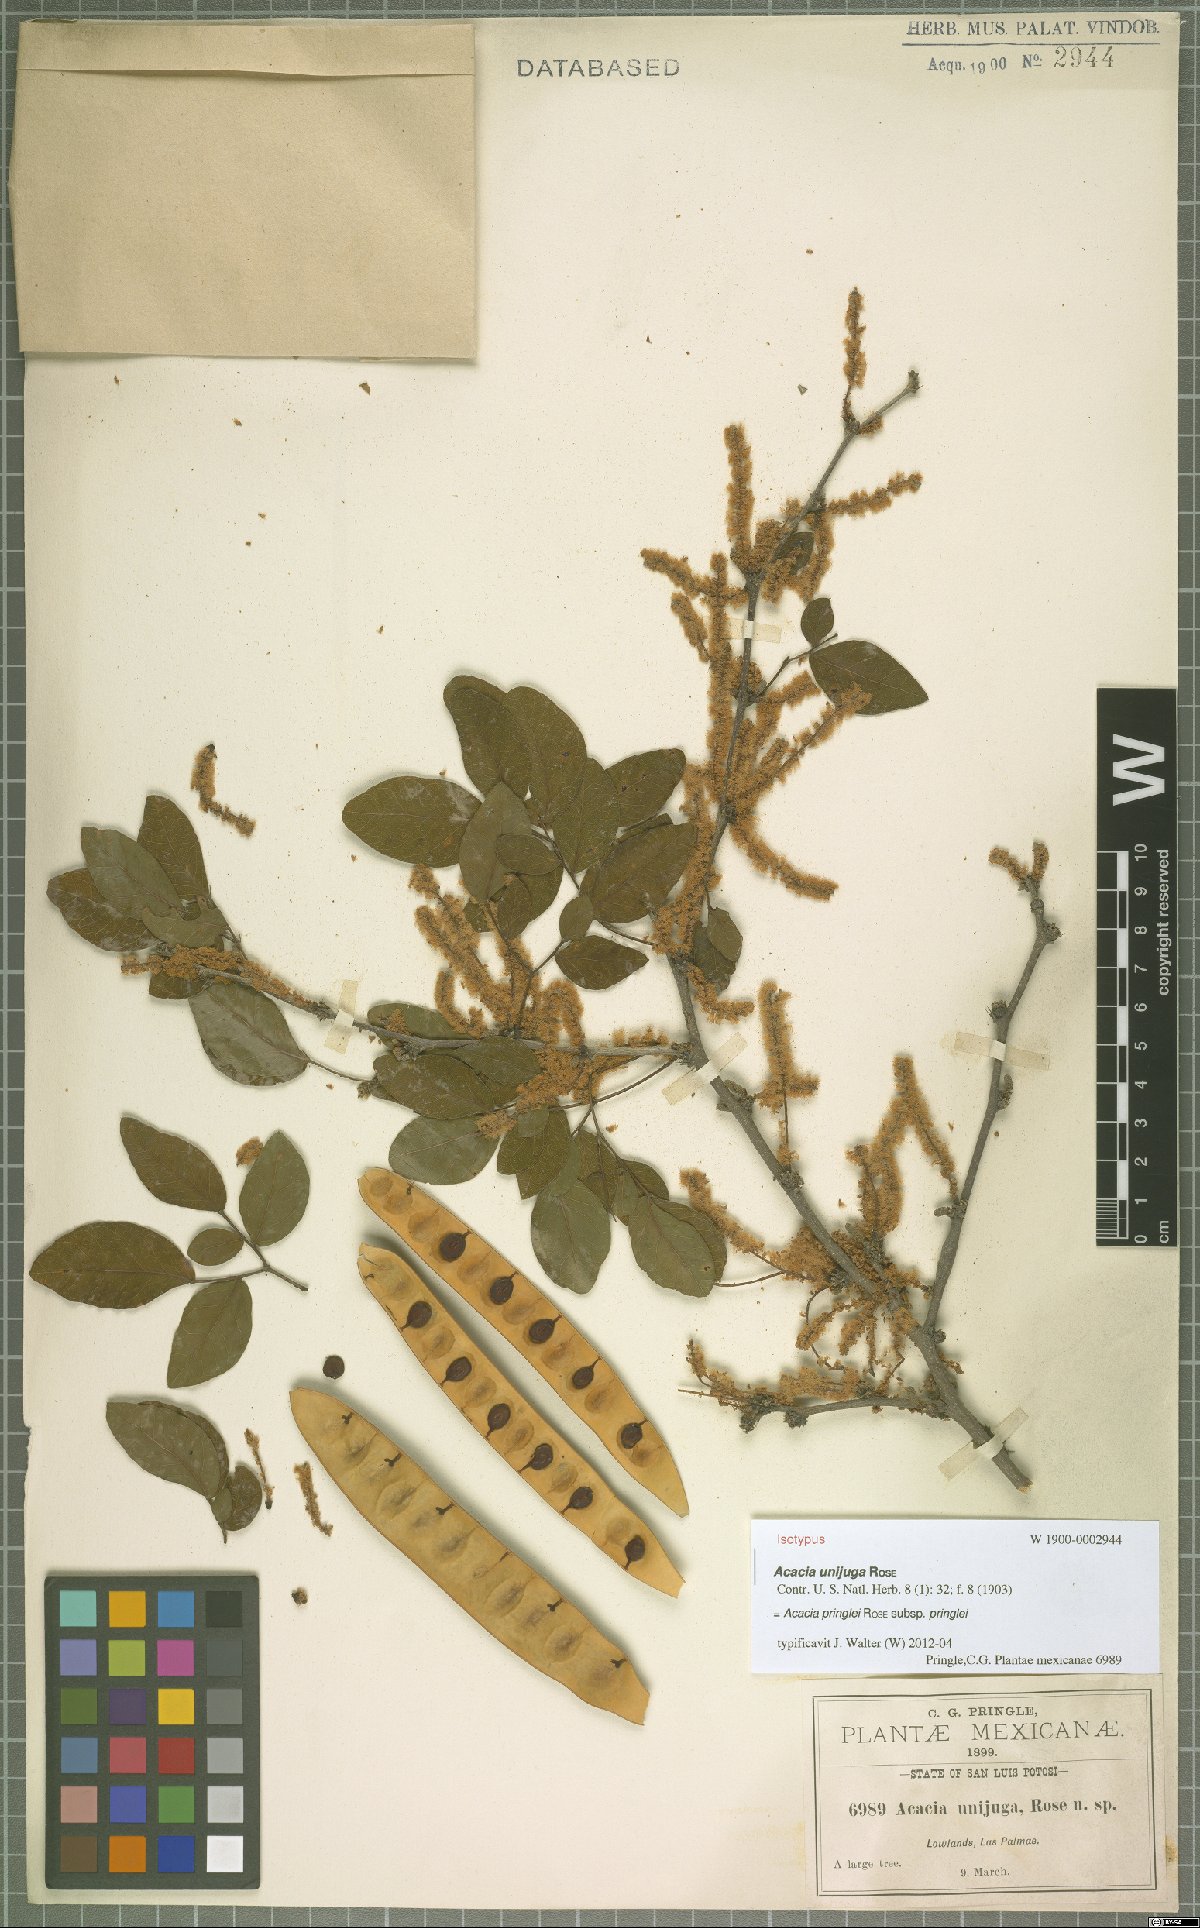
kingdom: Plantae
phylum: Tracheophyta
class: Magnoliopsida
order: Fabales
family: Fabaceae
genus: Vachellia
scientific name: Vachellia pringlei
